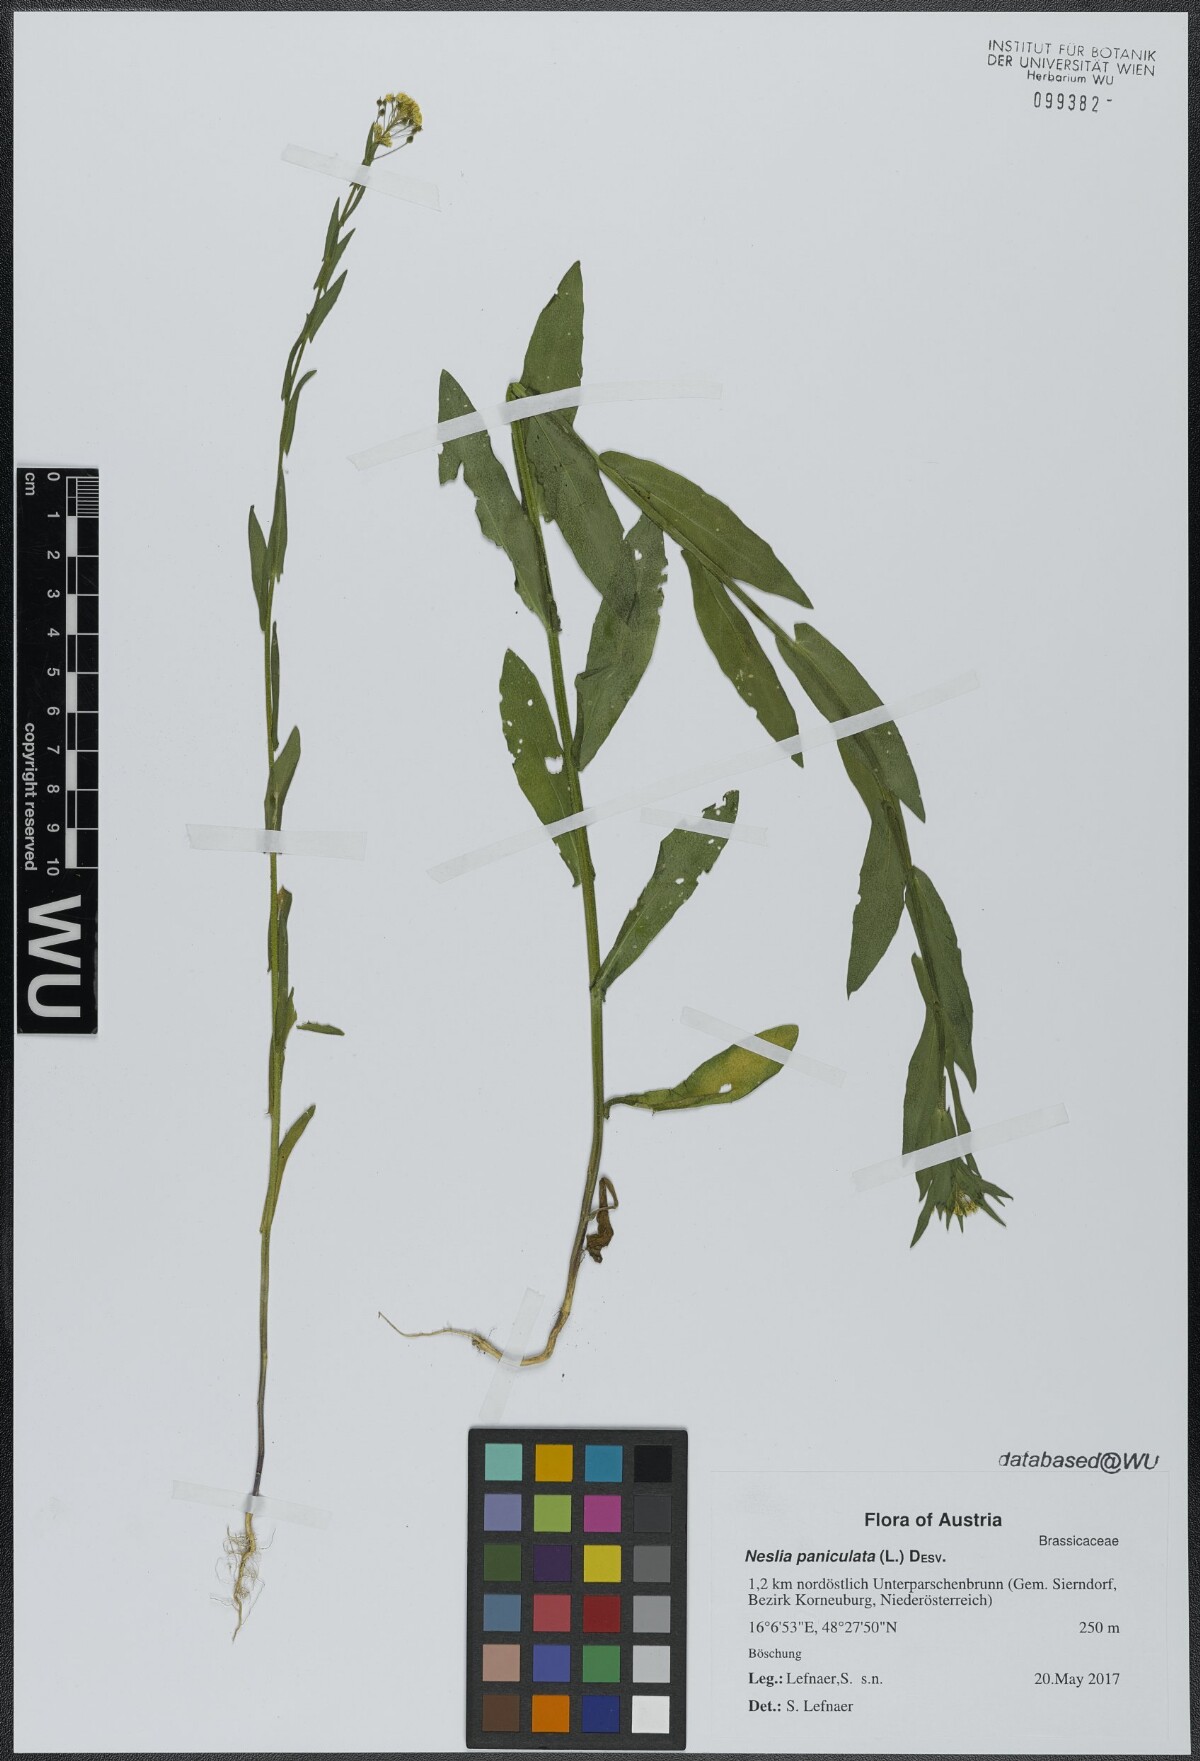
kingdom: Plantae
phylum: Tracheophyta
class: Magnoliopsida
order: Brassicales
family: Brassicaceae
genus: Neslia
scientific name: Neslia paniculata
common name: Ball mustard
